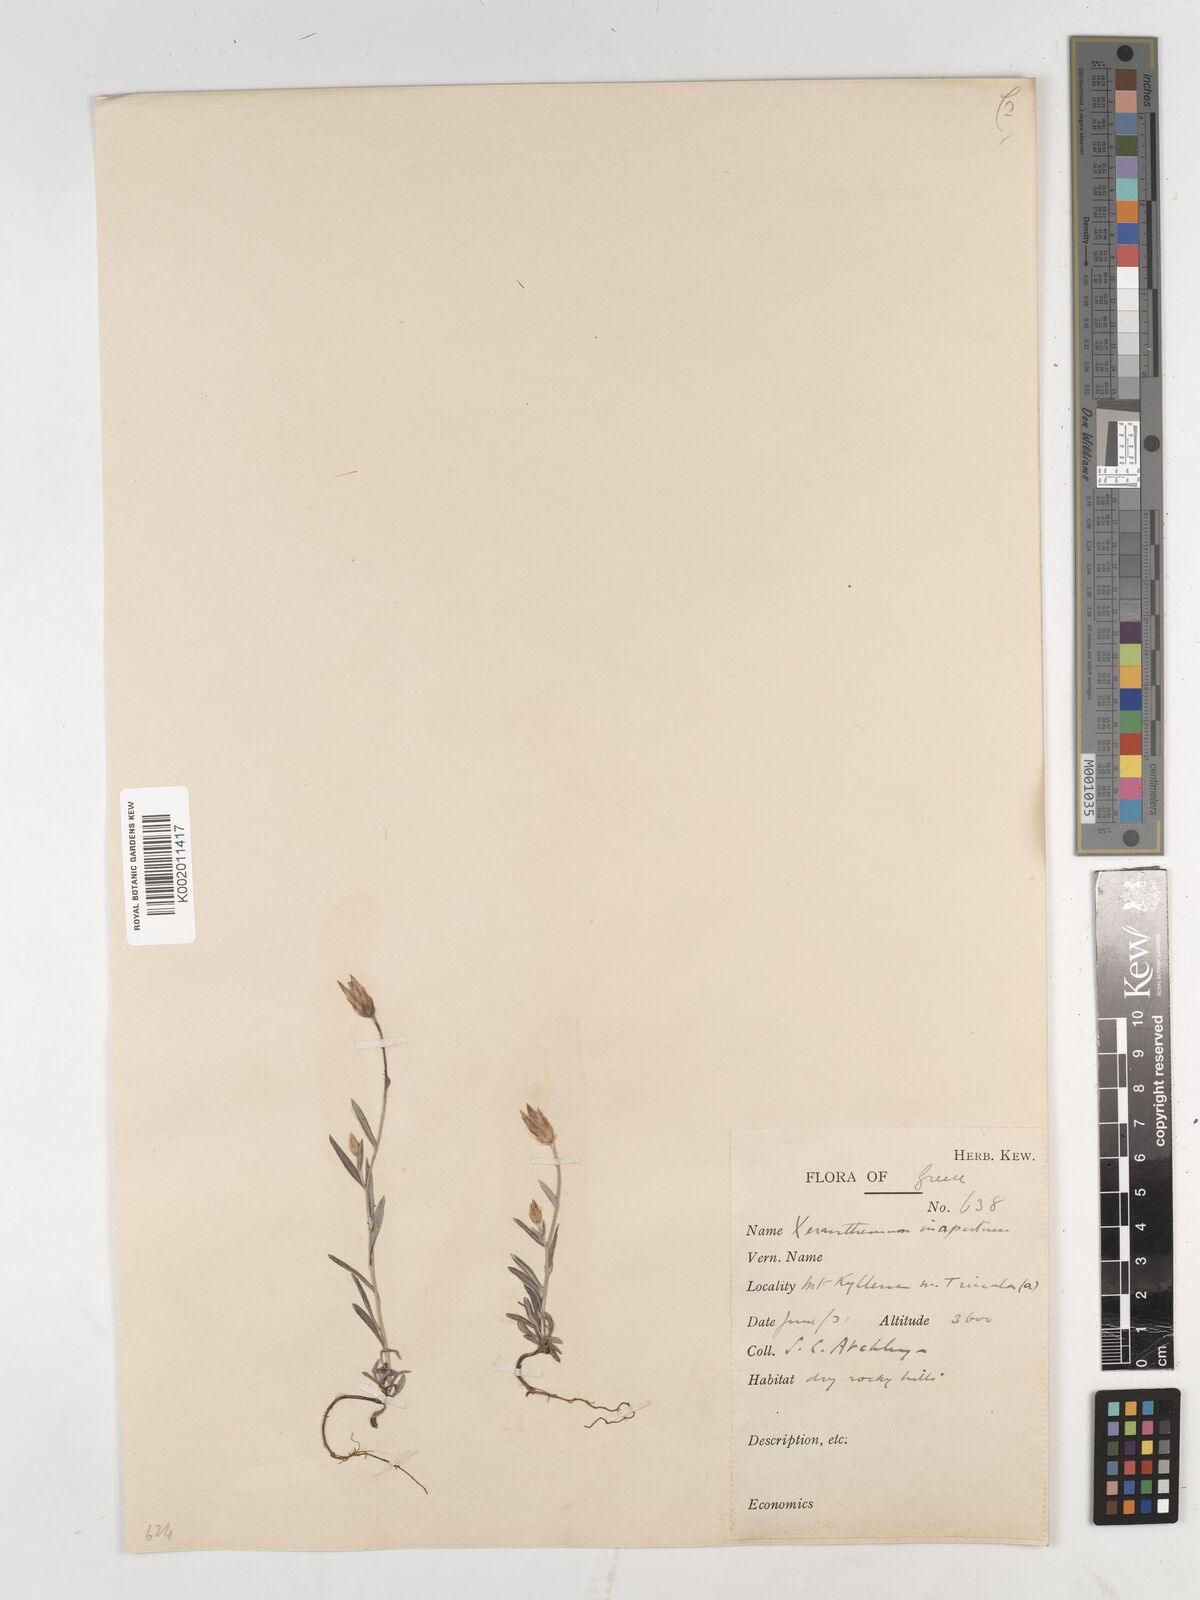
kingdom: Plantae
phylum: Tracheophyta
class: Magnoliopsida
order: Asterales
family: Asteraceae
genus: Xeranthemum
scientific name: Xeranthemum inapertum
